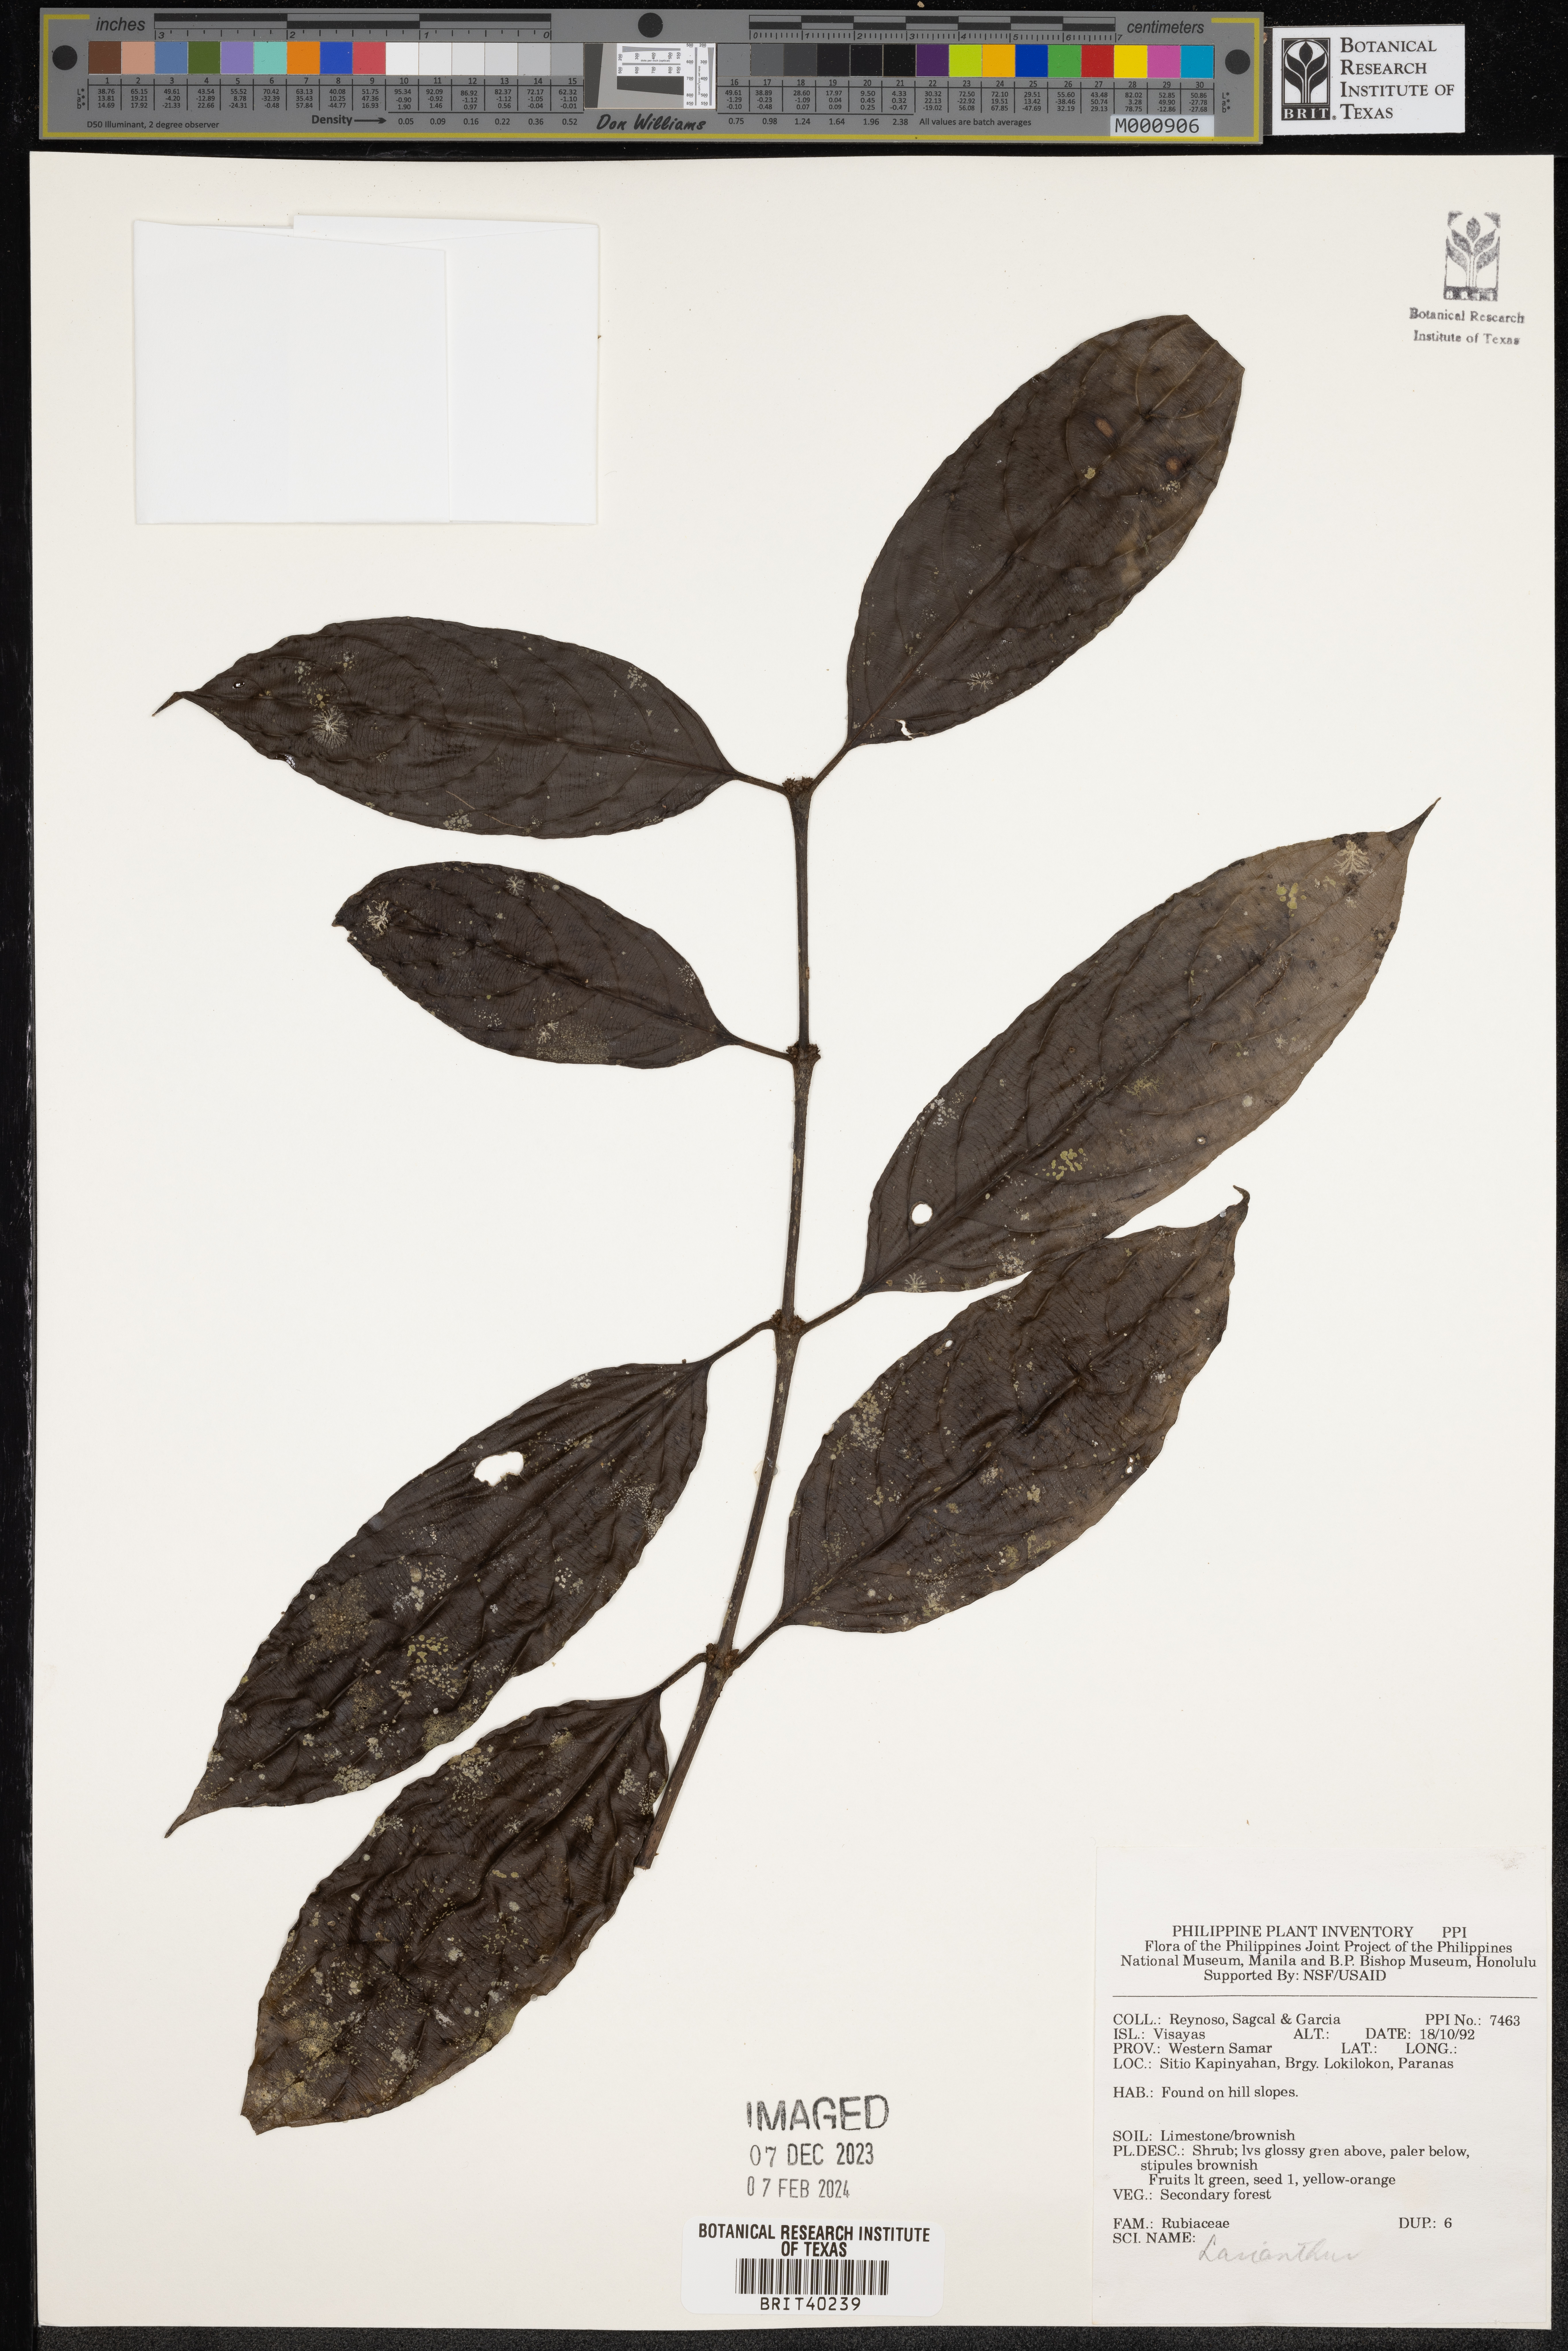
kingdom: Plantae
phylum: Tracheophyta
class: Magnoliopsida
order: Gentianales
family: Rubiaceae
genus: Lasianthus
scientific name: Lasianthus
